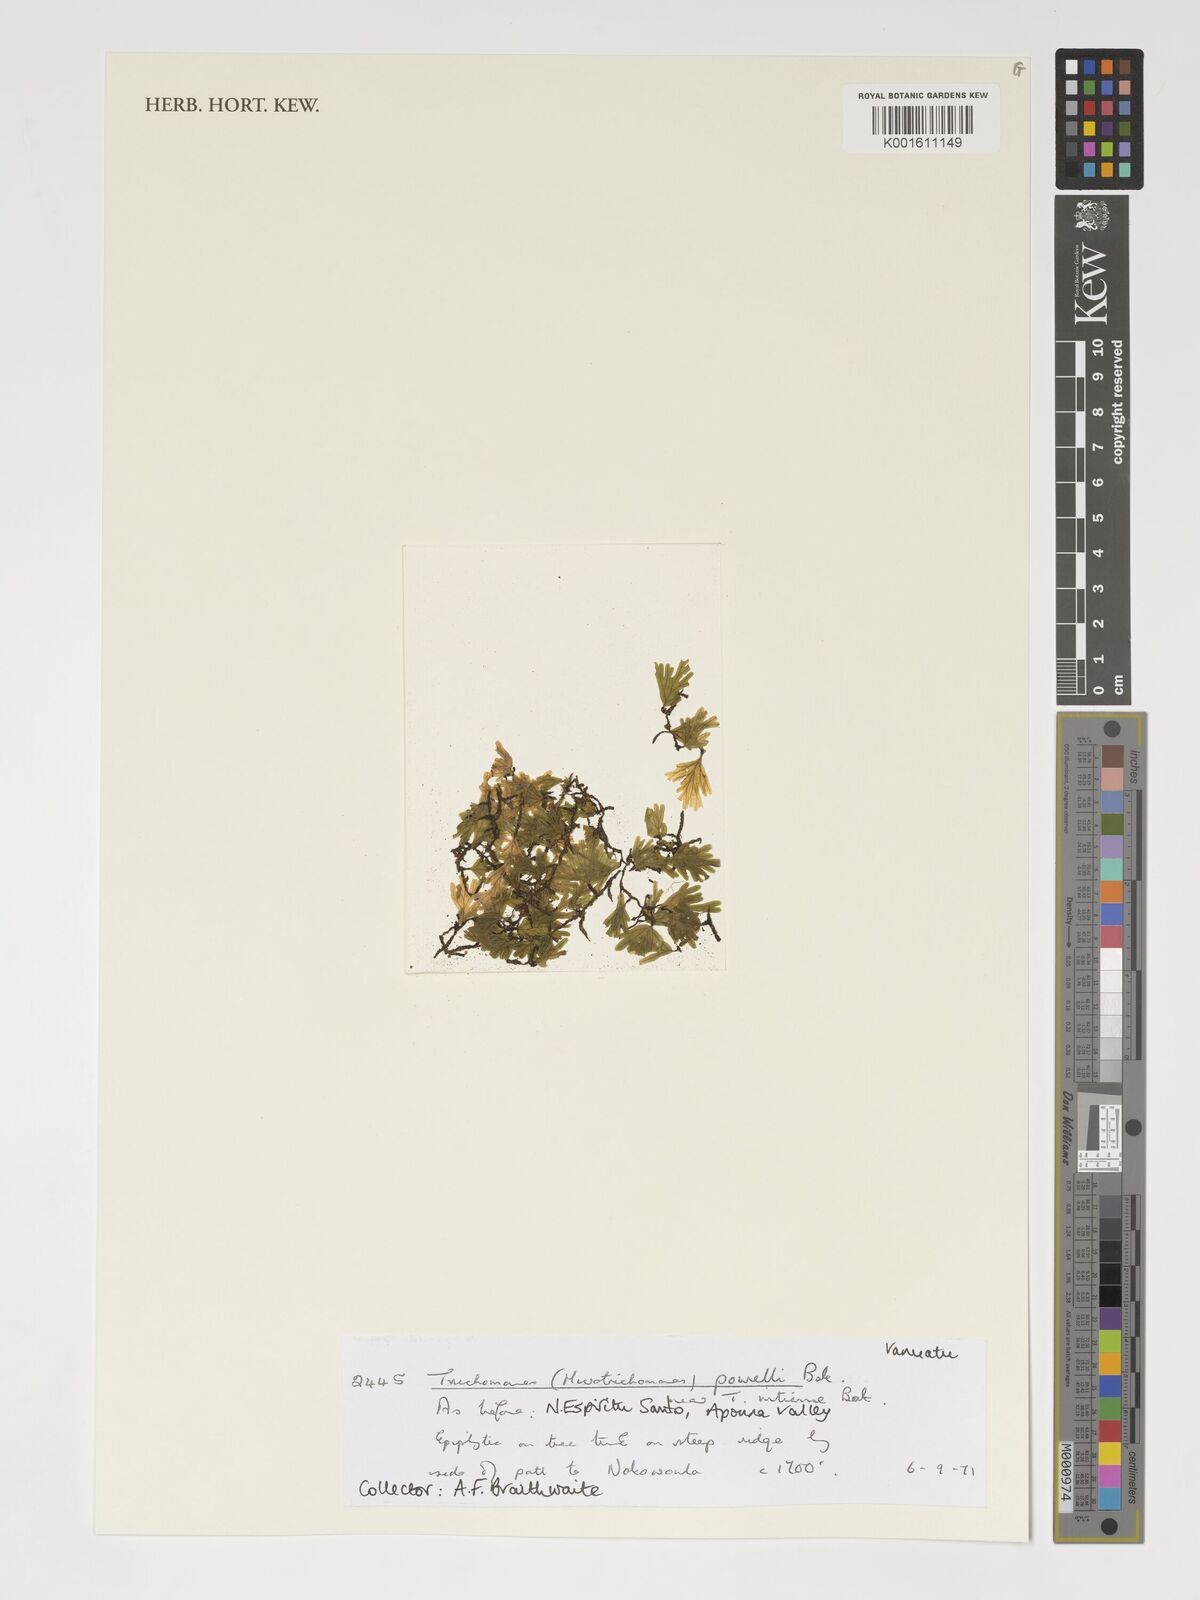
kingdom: Plantae
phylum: Tracheophyta
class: Polypodiopsida
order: Hymenophyllales
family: Hymenophyllaceae
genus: Crepidomanes
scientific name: Crepidomanes powellii
